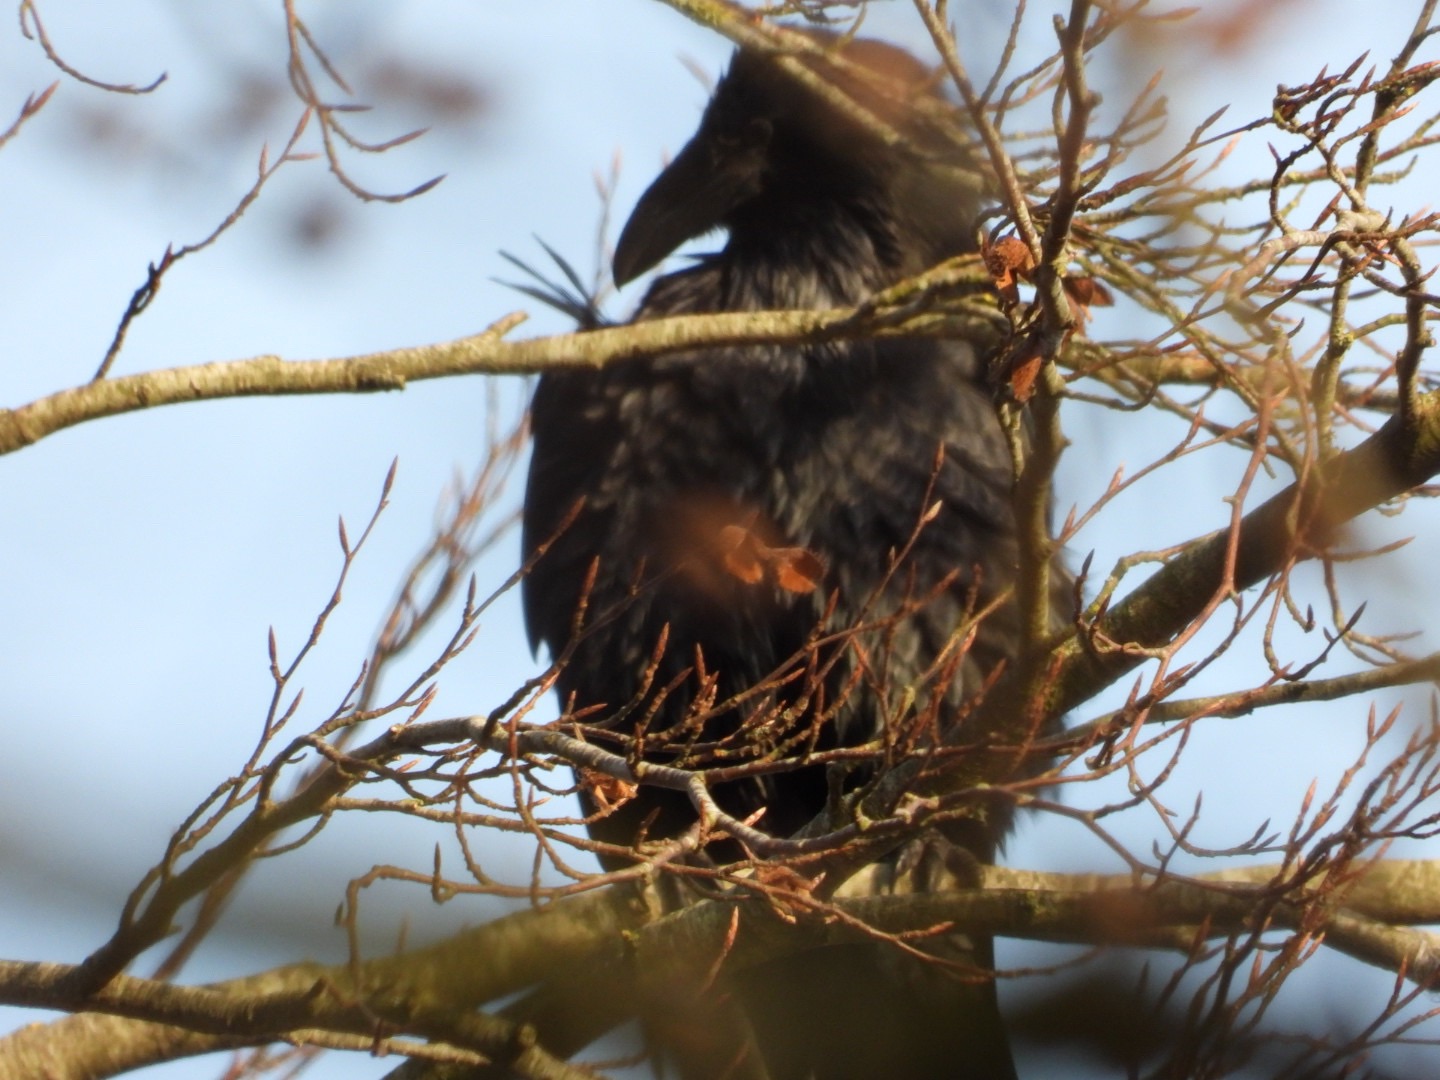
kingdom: Animalia
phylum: Chordata
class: Aves
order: Passeriformes
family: Corvidae
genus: Corvus
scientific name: Corvus corax
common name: Ravn
